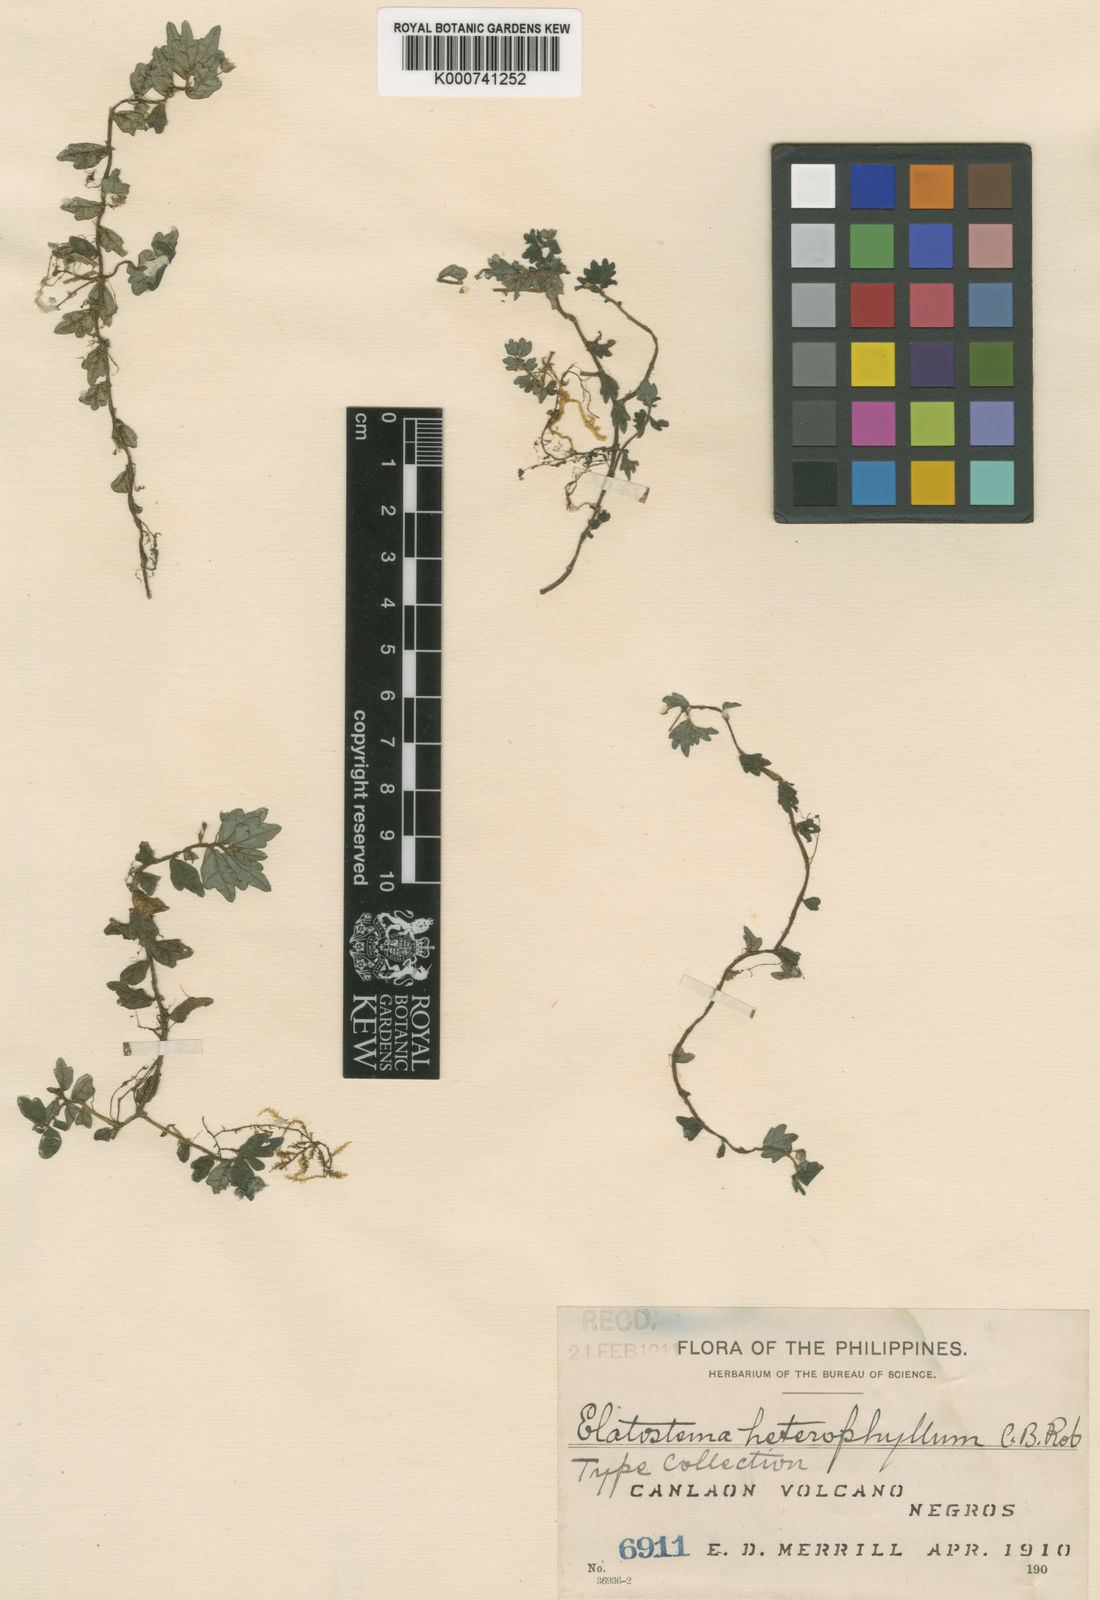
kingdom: Plantae
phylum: Tracheophyta
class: Magnoliopsida
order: Rosales
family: Urticaceae
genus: Elatostema
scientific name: Elatostema heterophyllum
